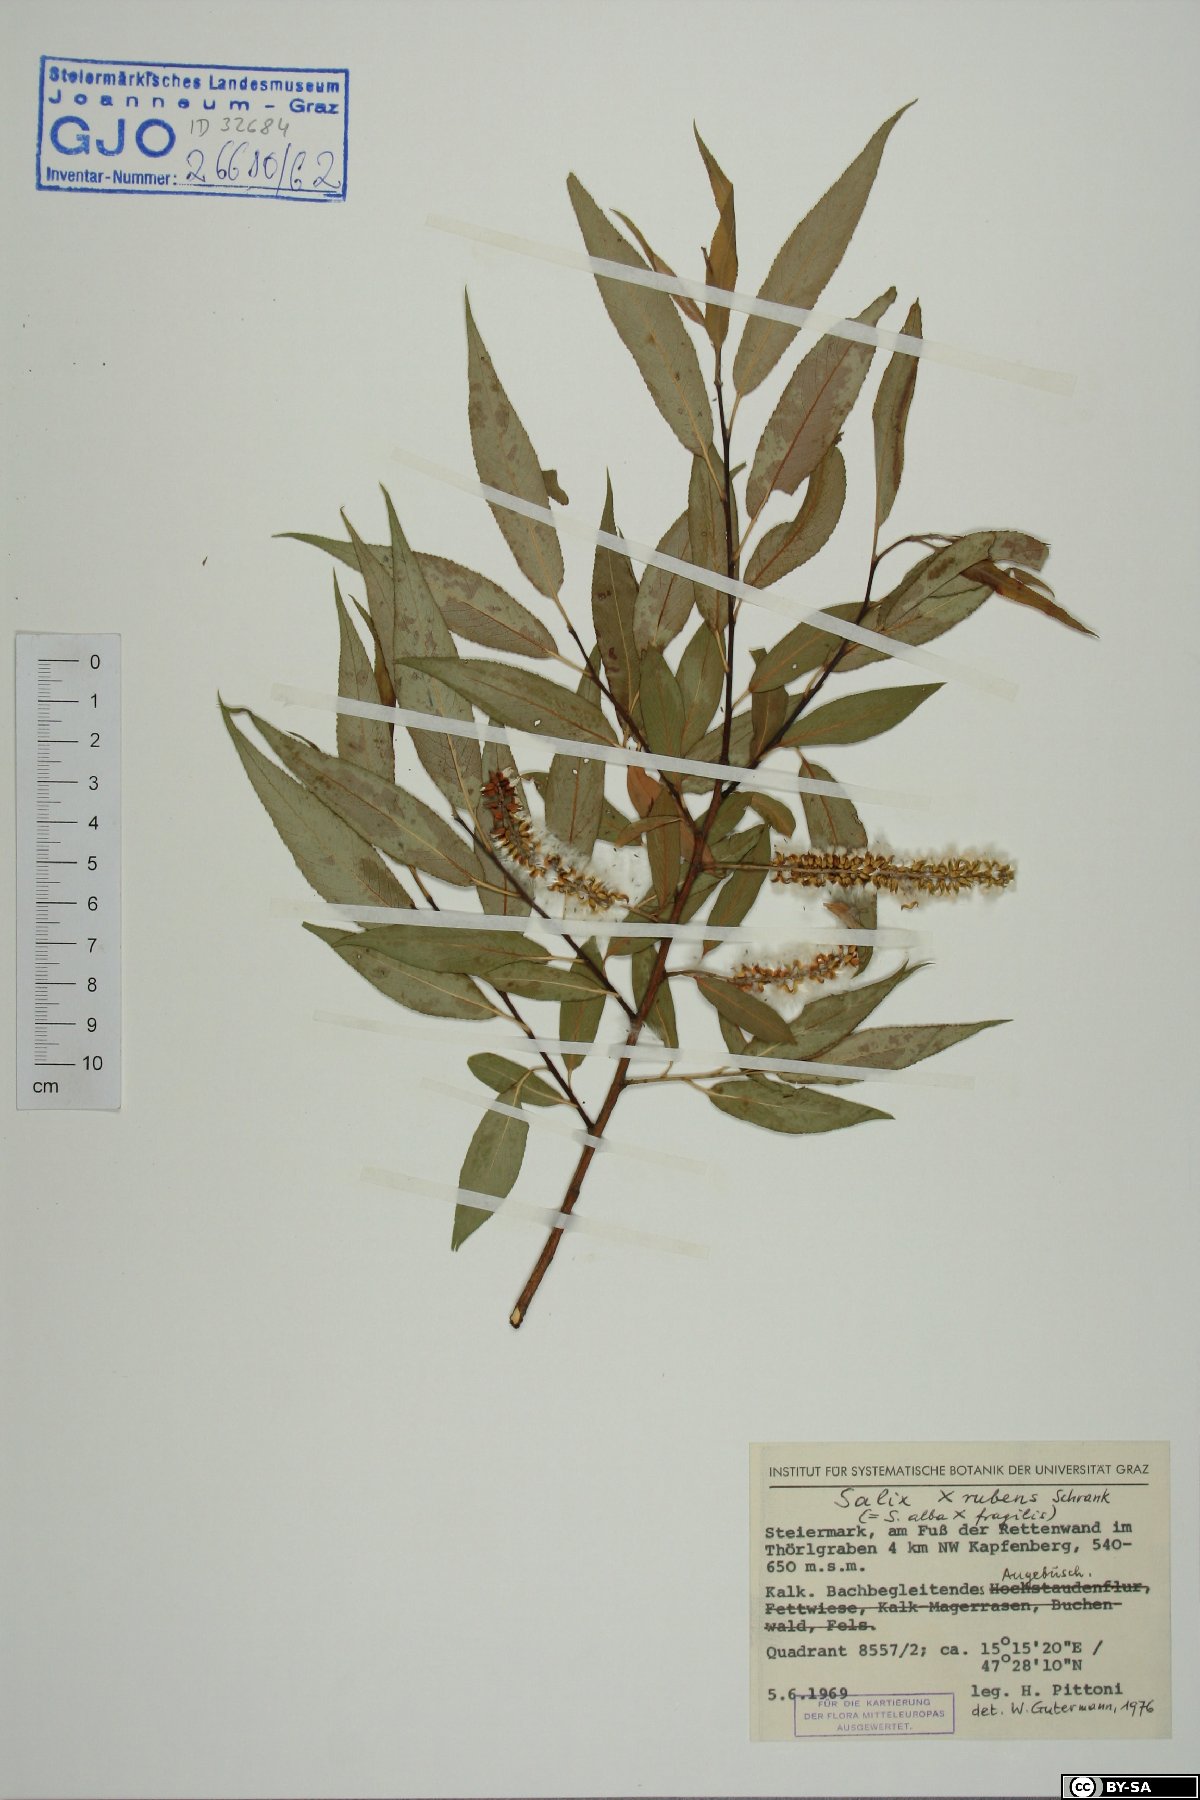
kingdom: Plantae
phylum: Tracheophyta
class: Magnoliopsida
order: Malpighiales
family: Salicaceae
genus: Salix
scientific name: Salix rubens
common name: Hybrid crack willow
